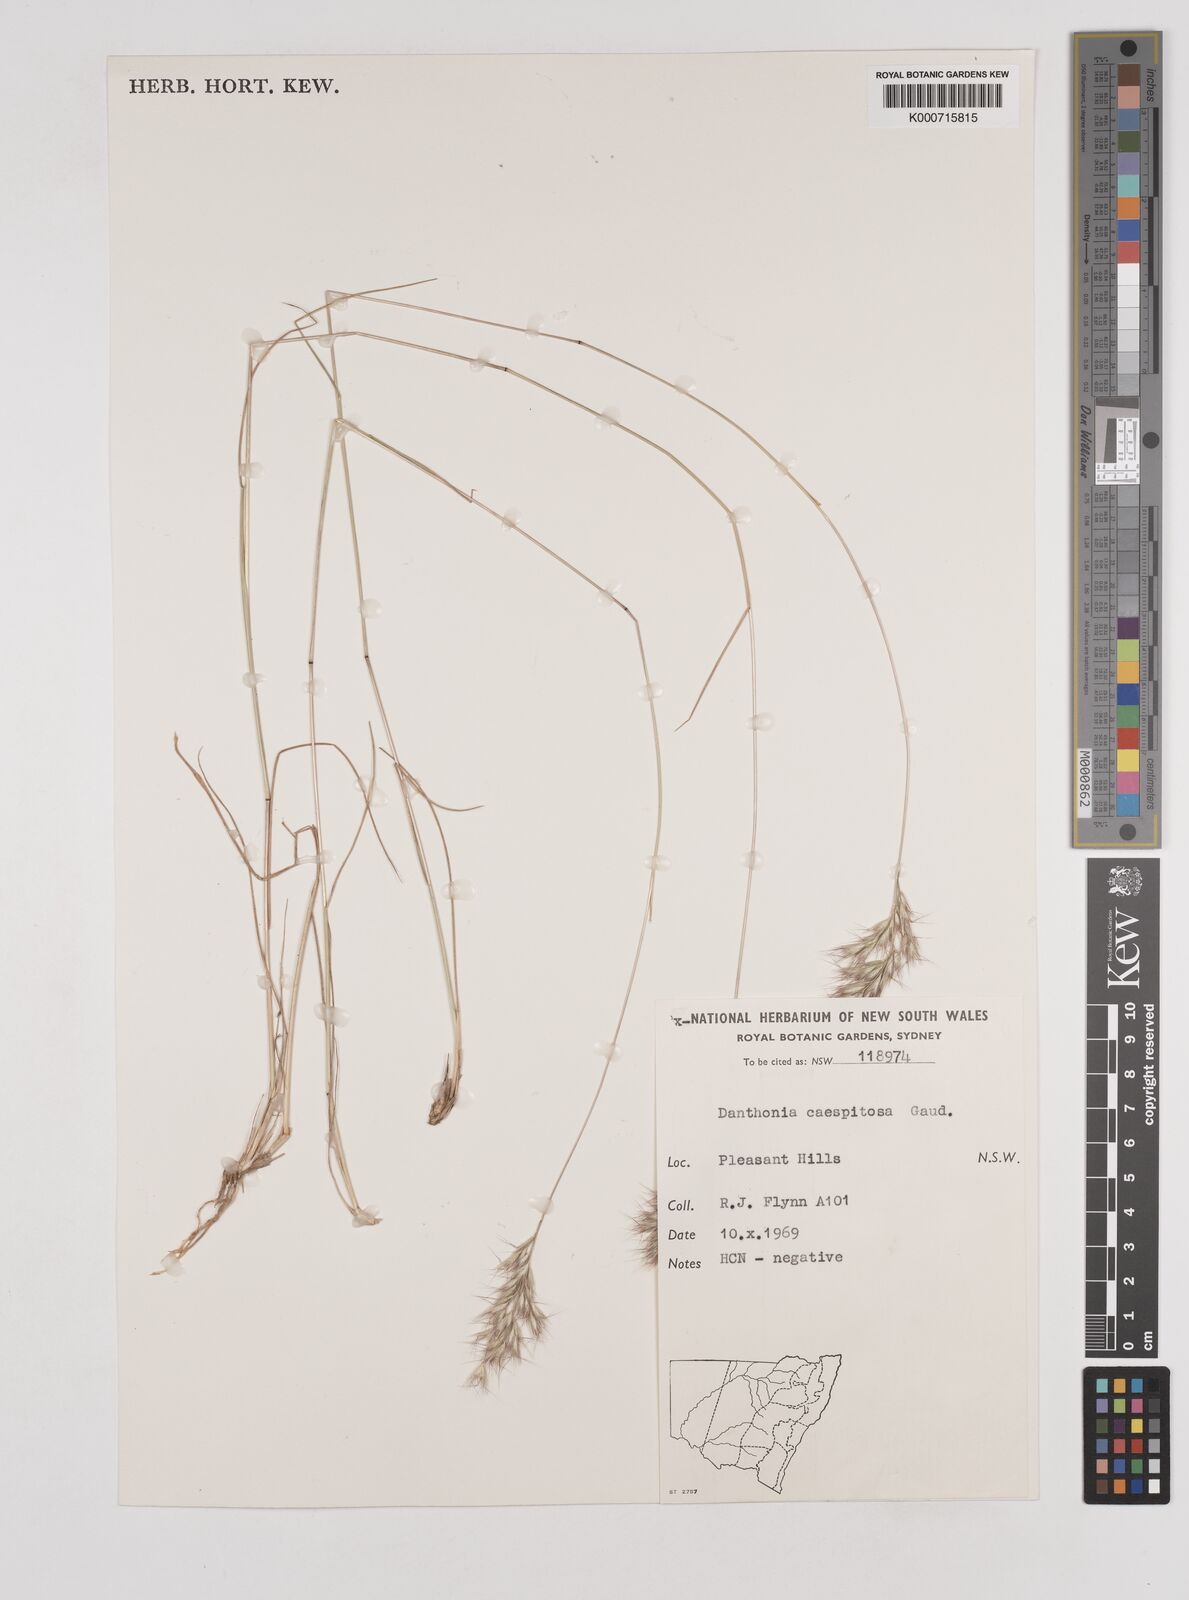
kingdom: Plantae
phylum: Tracheophyta
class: Liliopsida
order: Poales
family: Poaceae
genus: Rytidosperma
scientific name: Rytidosperma caespitosum
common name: Tufted wallaby grass
